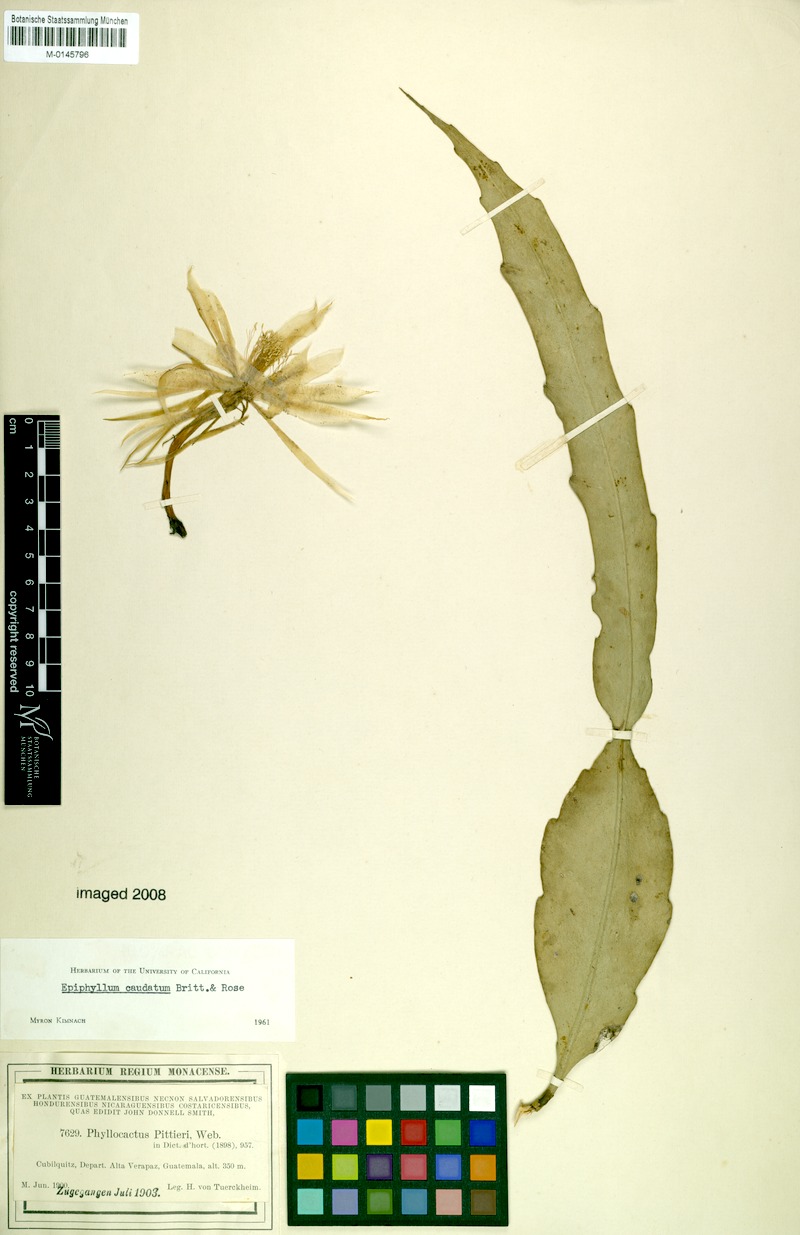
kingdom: Plantae
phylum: Tracheophyta
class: Magnoliopsida
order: Caryophyllales
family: Cactaceae
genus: Epiphyllum
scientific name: Epiphyllum pumilum
